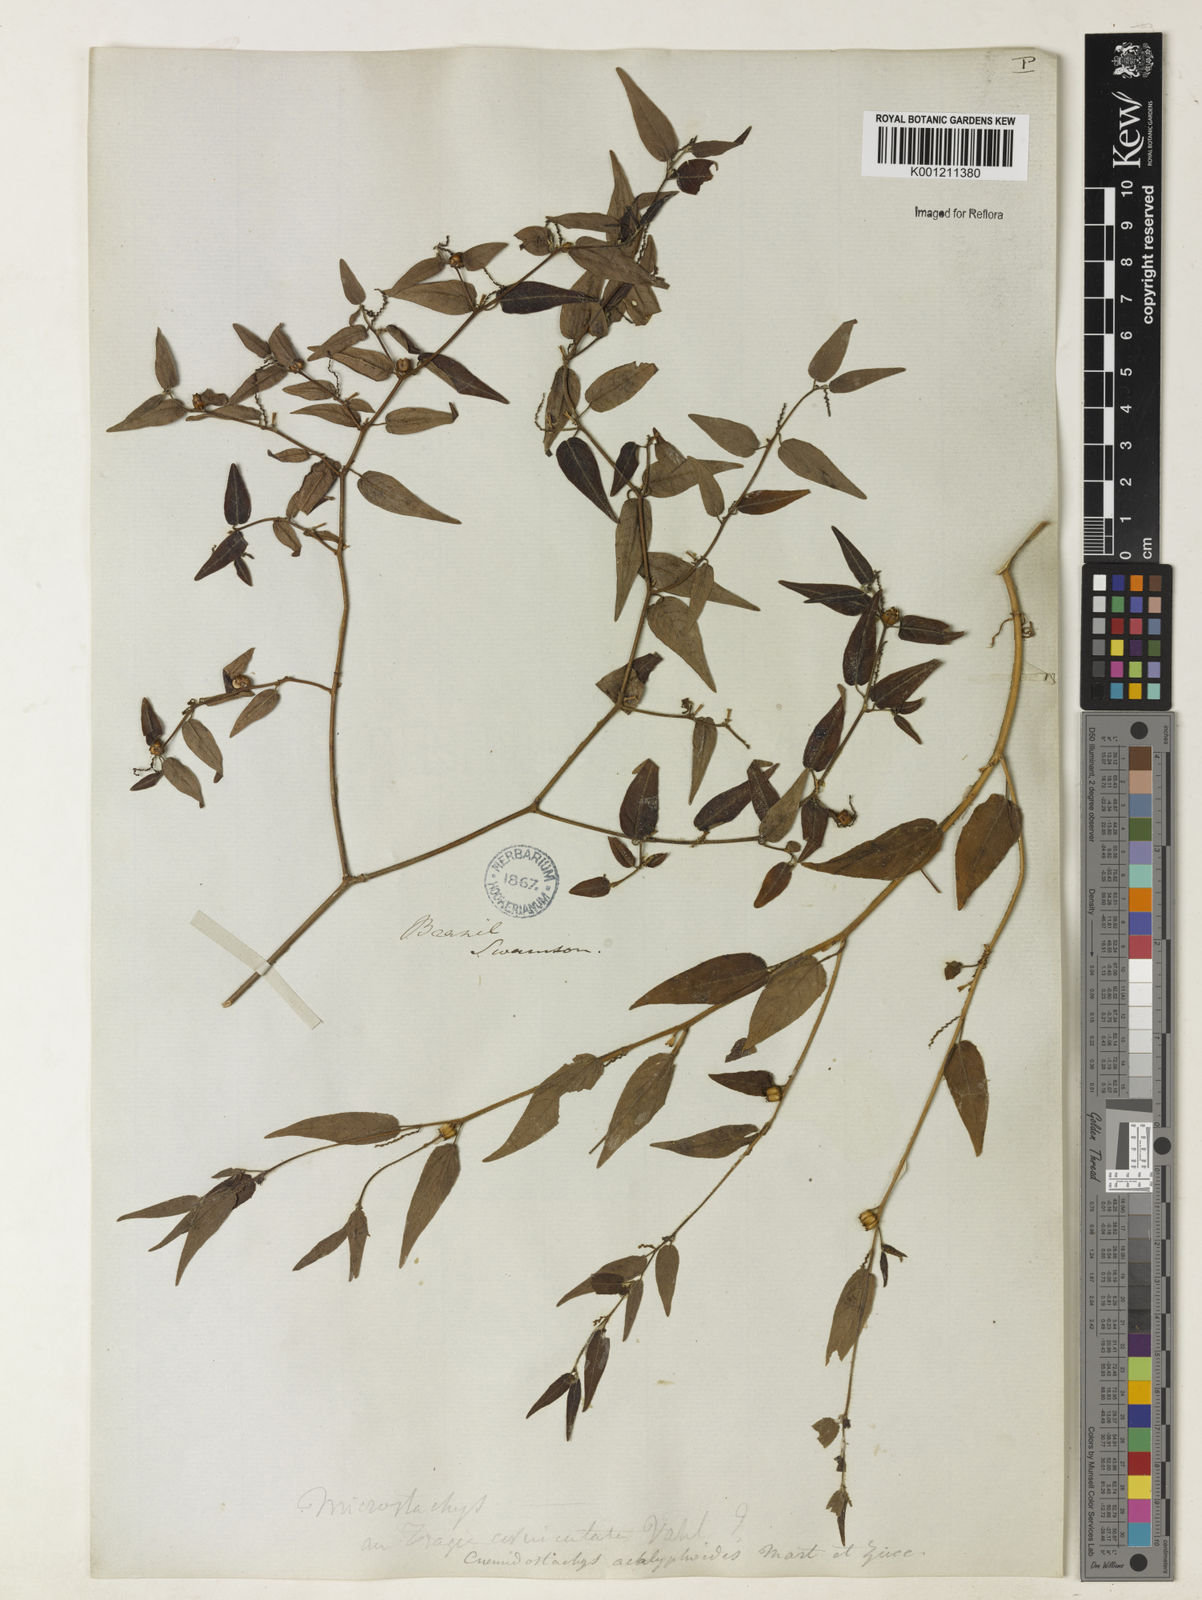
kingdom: Plantae
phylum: Tracheophyta
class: Magnoliopsida
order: Malpighiales
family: Euphorbiaceae
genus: Microstachys
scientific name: Microstachys corniculata
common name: Hato tejas
